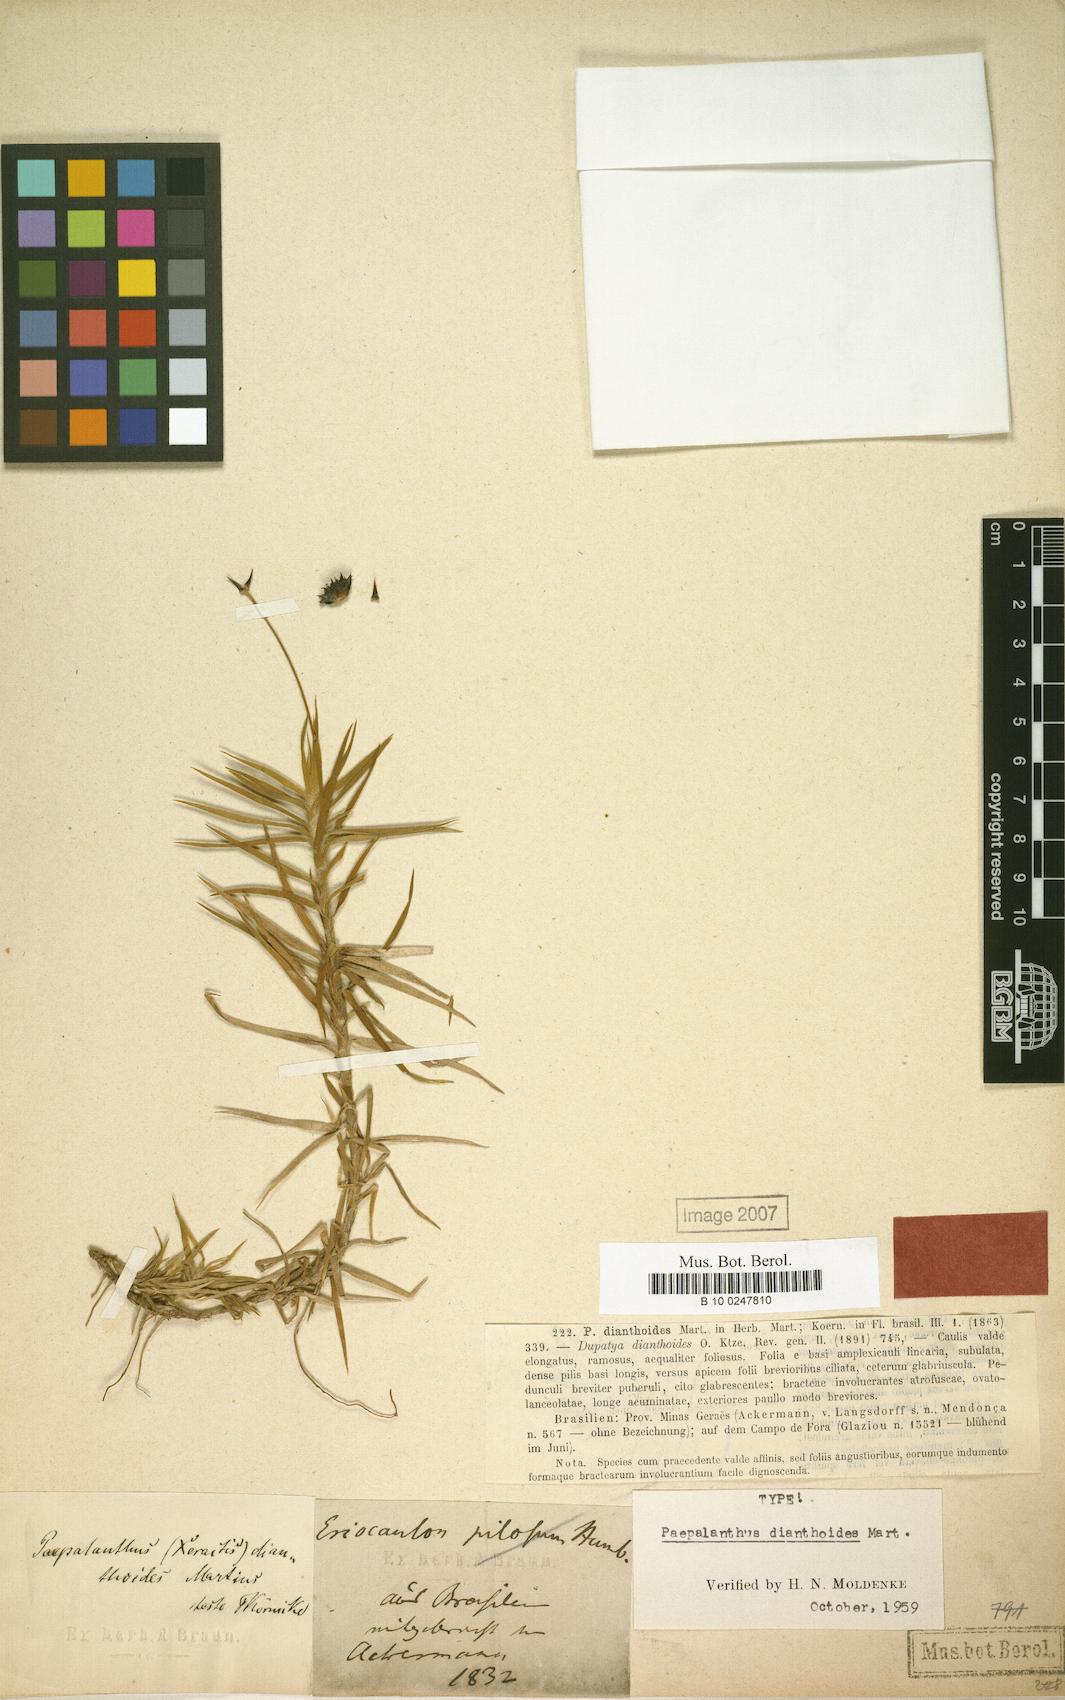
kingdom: Plantae
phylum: Tracheophyta
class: Liliopsida
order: Poales
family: Eriocaulaceae
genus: Paepalanthus
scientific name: Paepalanthus dianthoides
